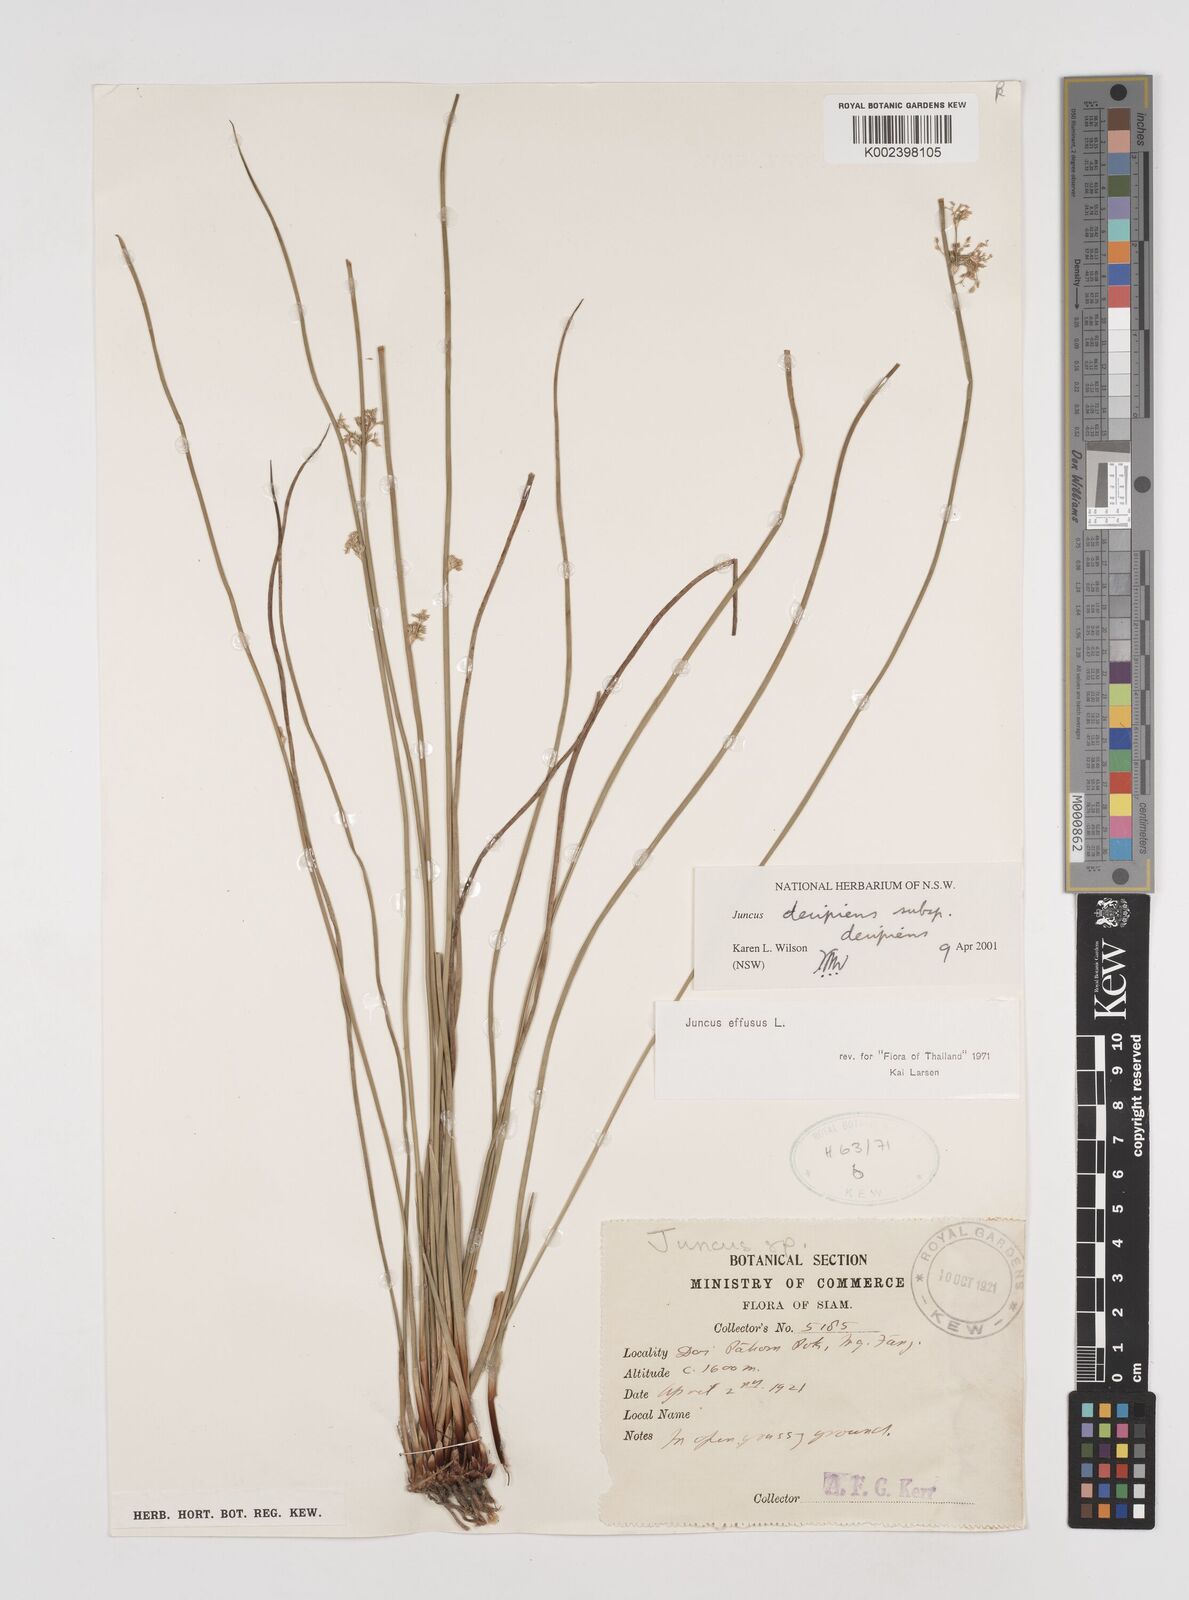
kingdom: Plantae
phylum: Tracheophyta
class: Liliopsida
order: Poales
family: Juncaceae
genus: Juncus
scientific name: Juncus decipiens
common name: Lamp rush
